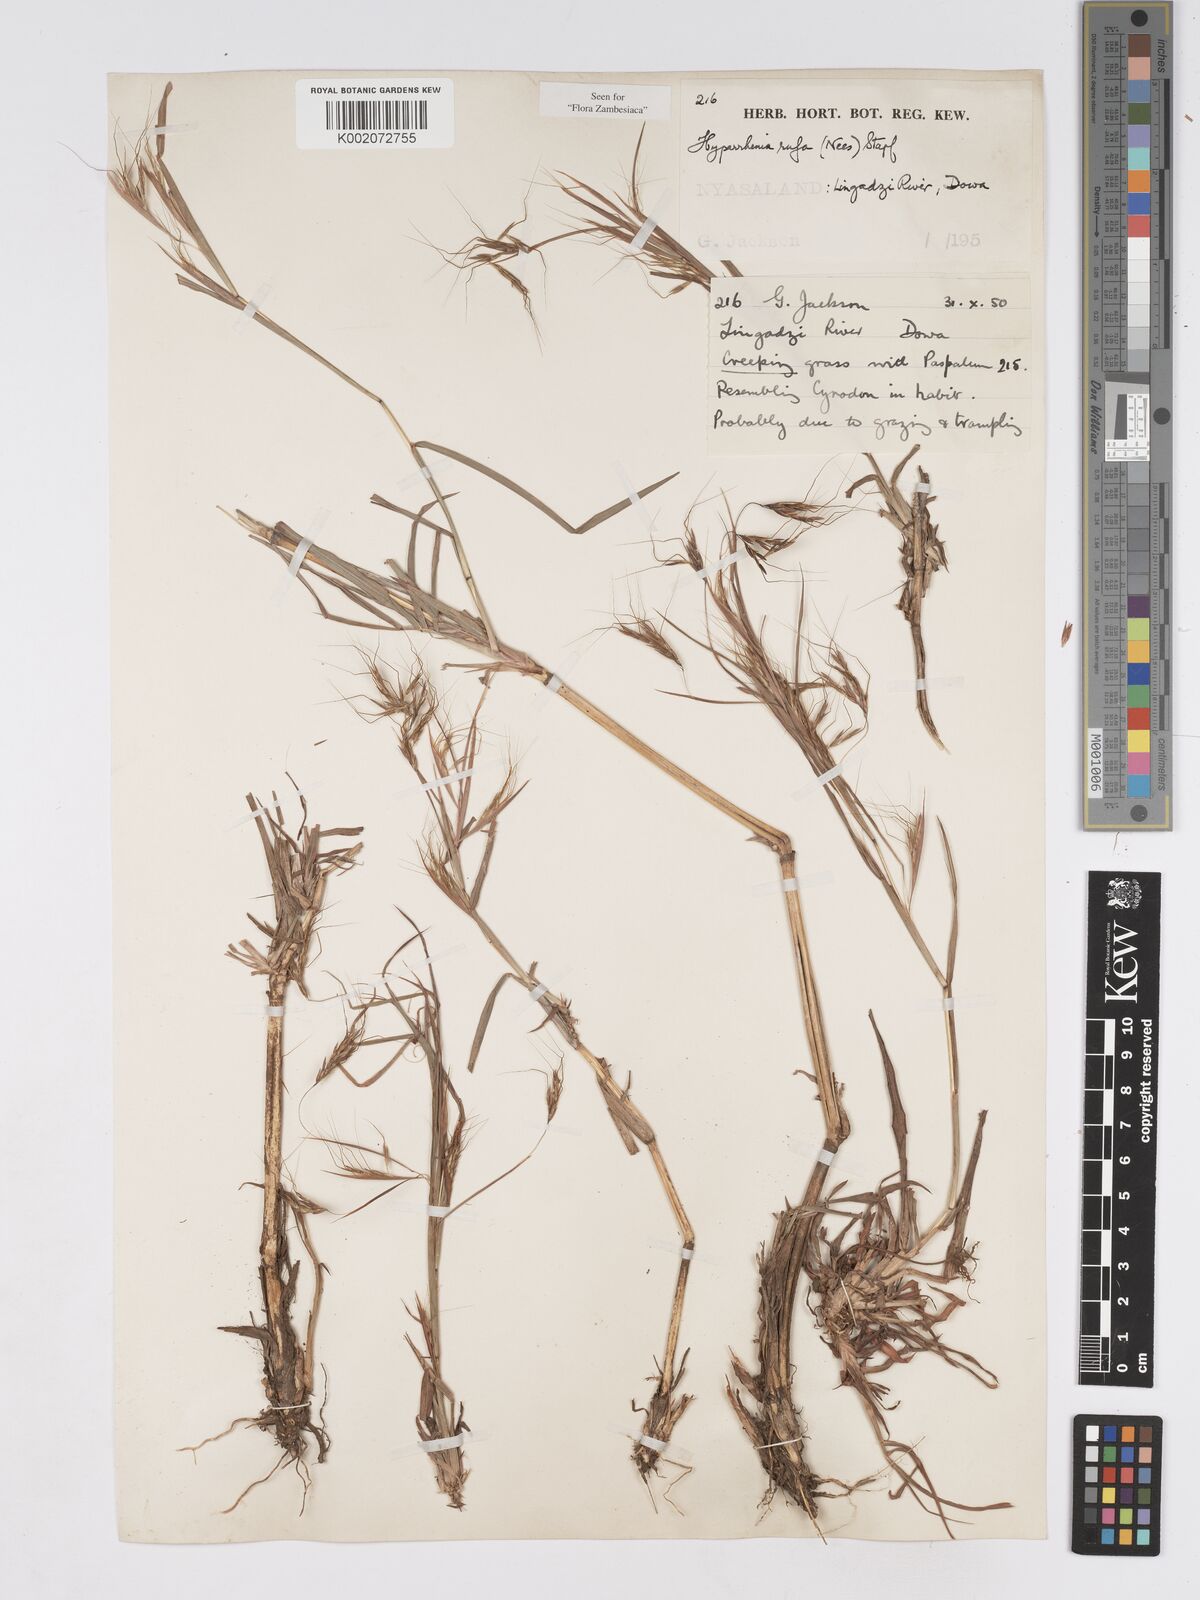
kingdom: Plantae
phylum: Tracheophyta
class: Liliopsida
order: Poales
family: Poaceae
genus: Hyparrhenia
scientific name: Hyparrhenia rufa
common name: Jaraguagrass
